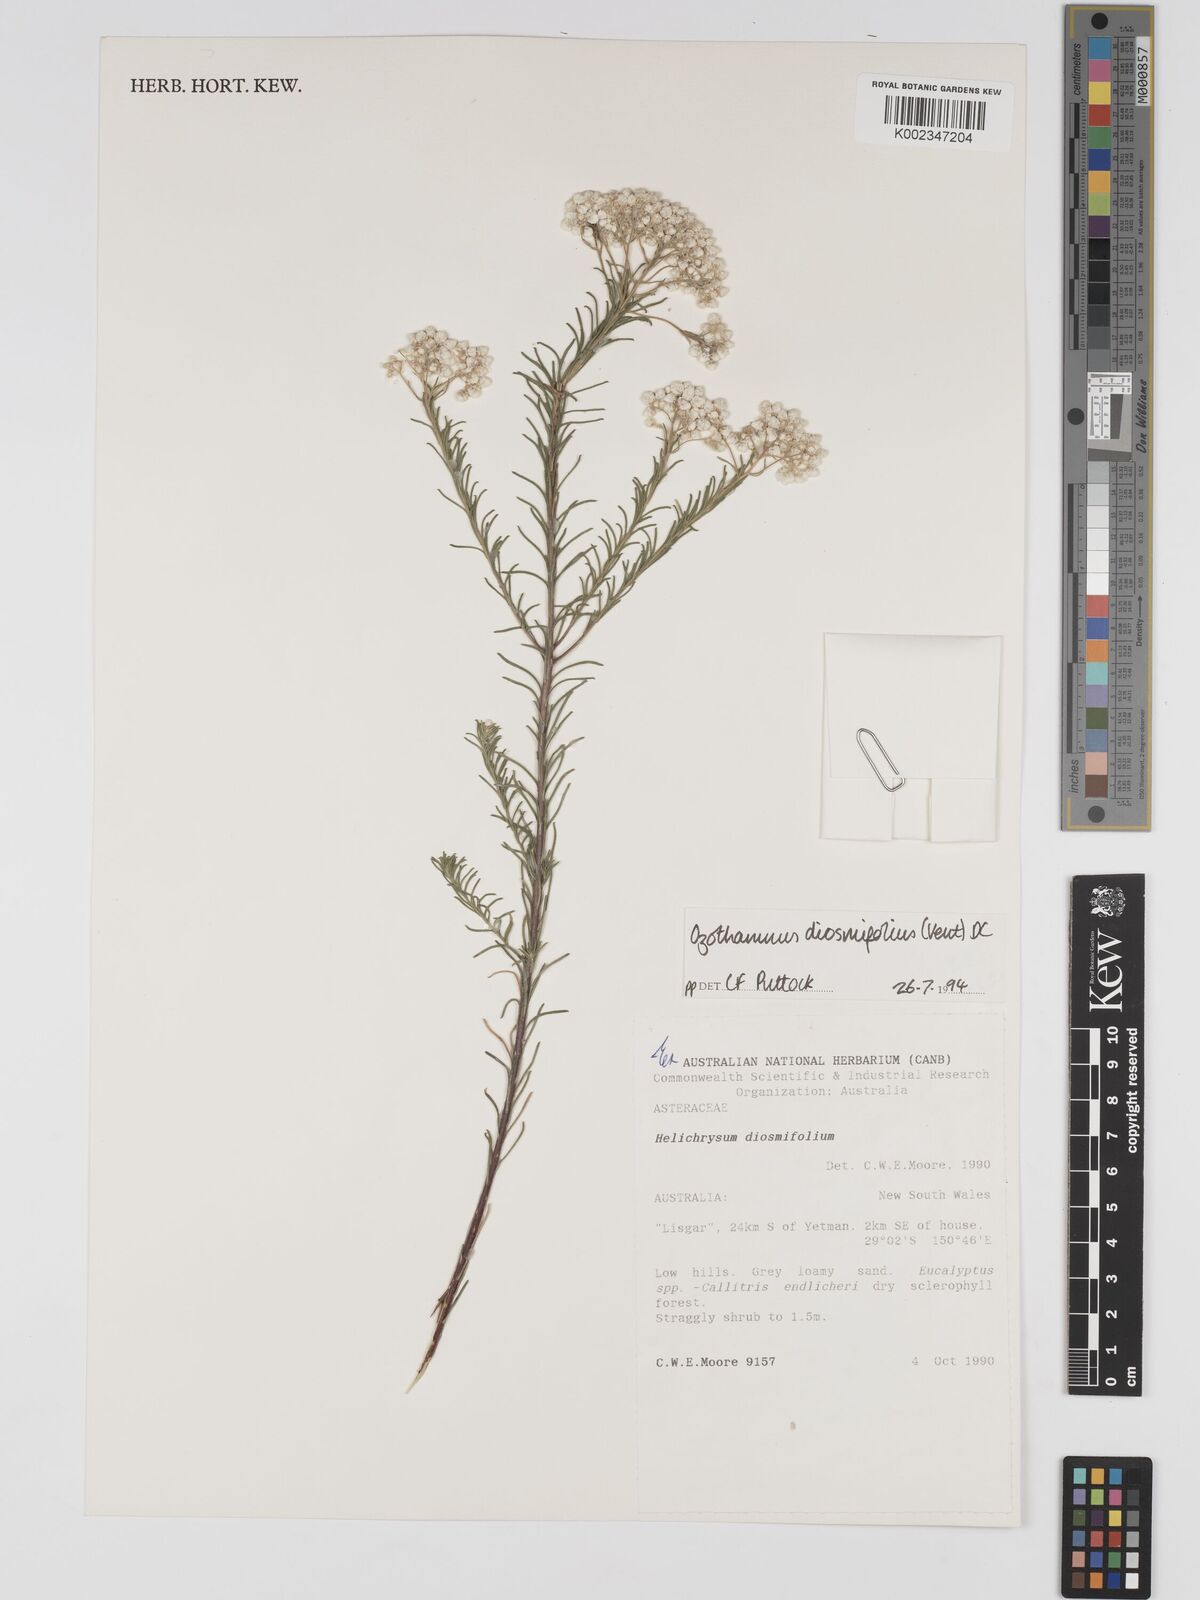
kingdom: Plantae
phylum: Tracheophyta
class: Magnoliopsida
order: Asterales
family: Asteraceae
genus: Ozothamnus
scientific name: Ozothamnus diosmifolius
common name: White-dogwood
